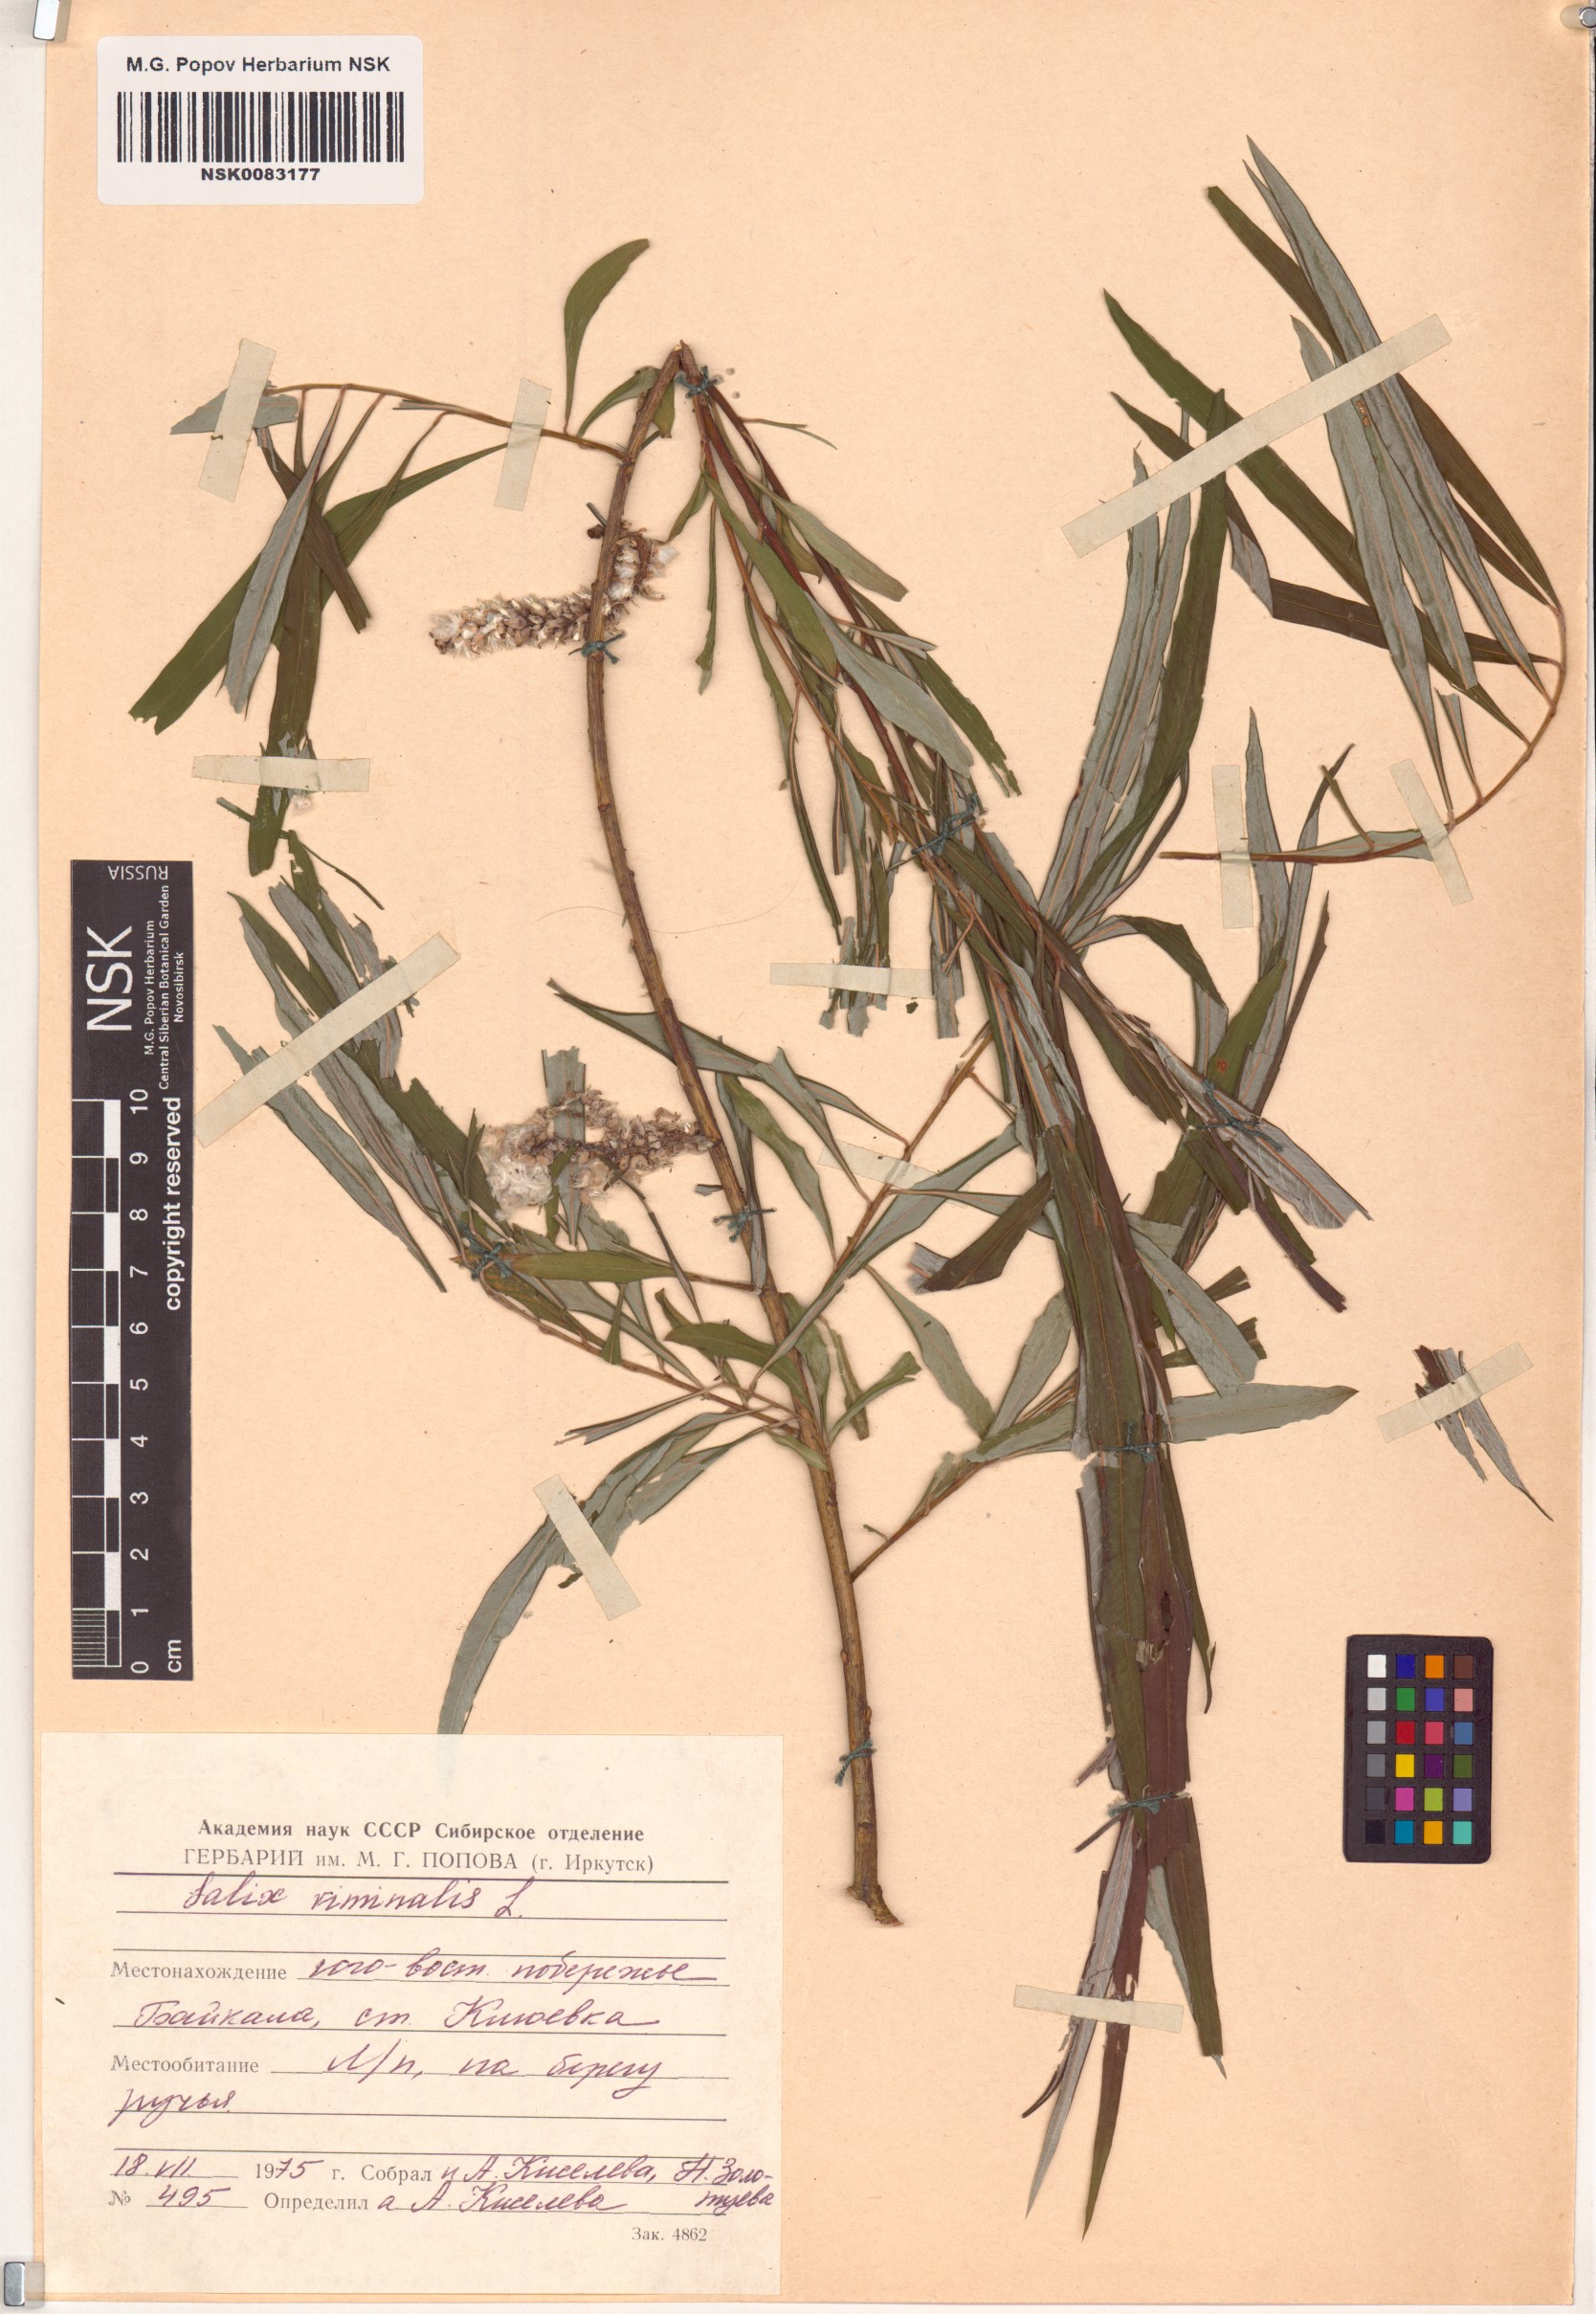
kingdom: Plantae
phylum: Tracheophyta
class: Magnoliopsida
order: Malpighiales
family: Salicaceae
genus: Salix
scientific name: Salix viminalis
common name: Osier
